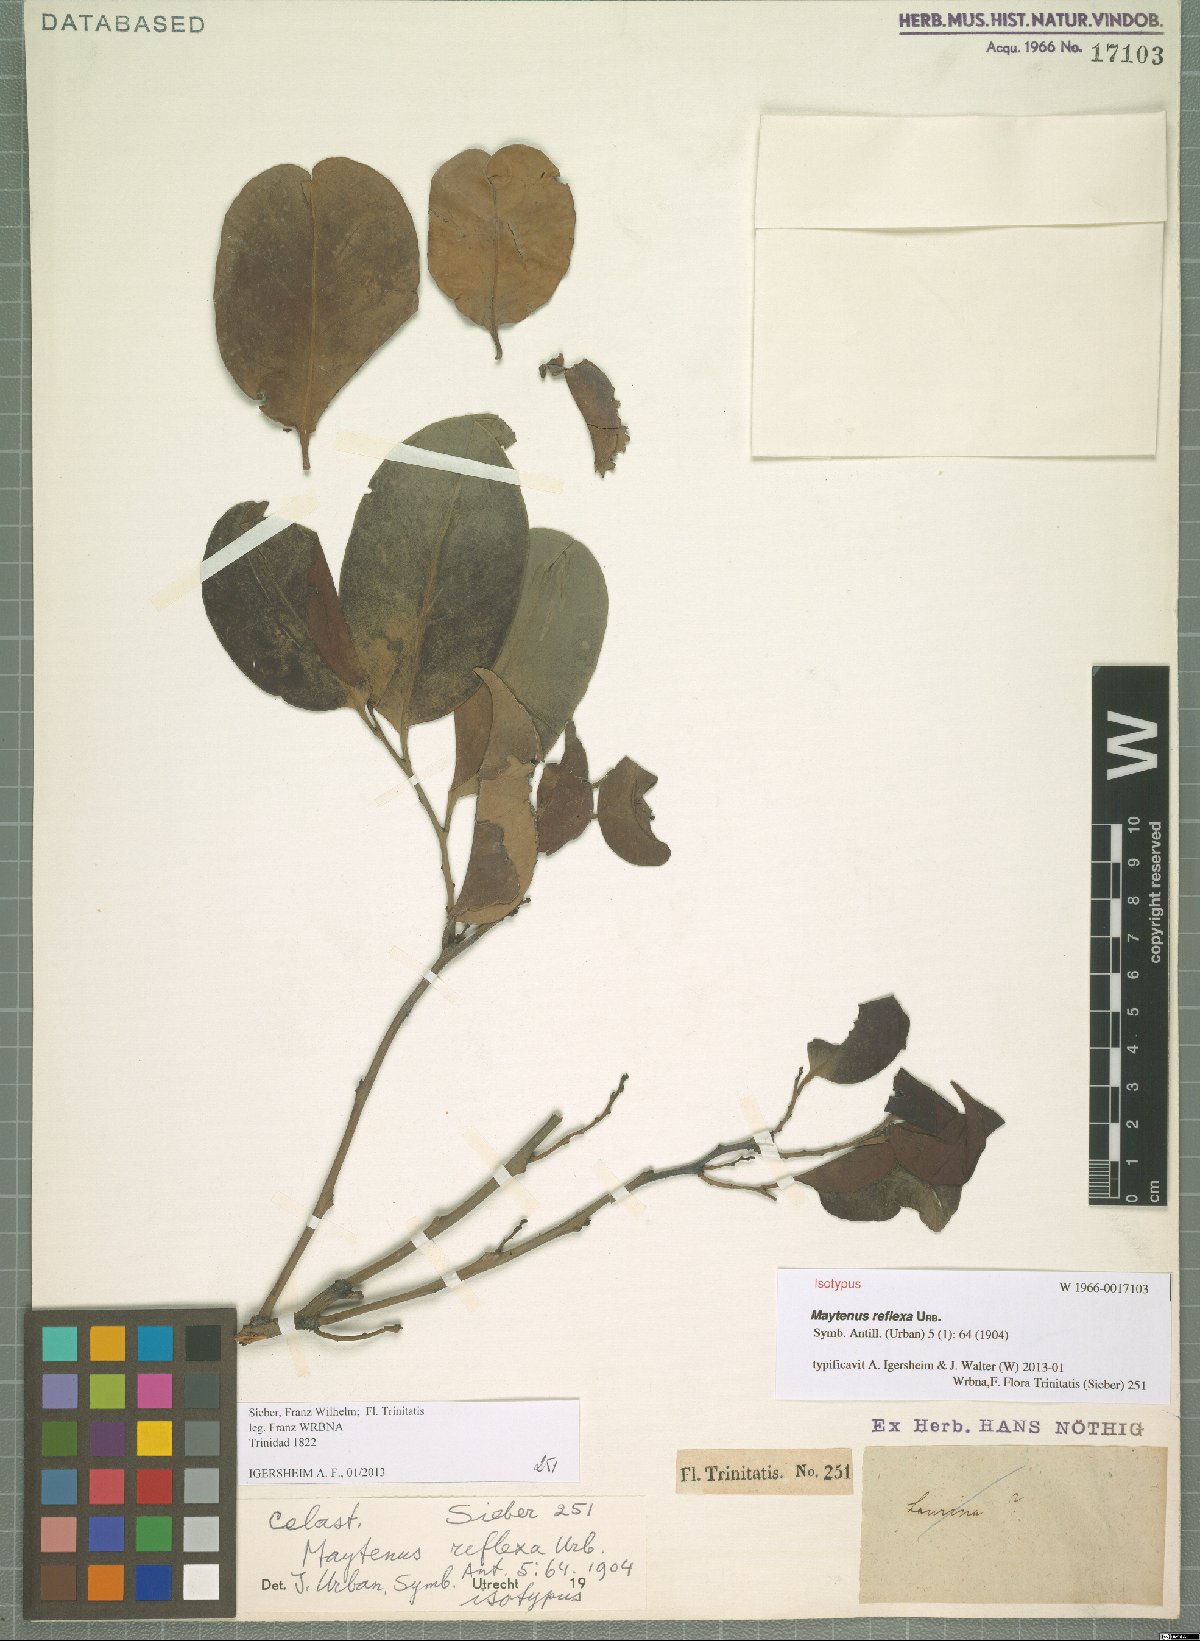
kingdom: Plantae
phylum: Tracheophyta
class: Magnoliopsida
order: Celastrales
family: Celastraceae
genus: Monteverdia
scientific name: Monteverdia reflexa
